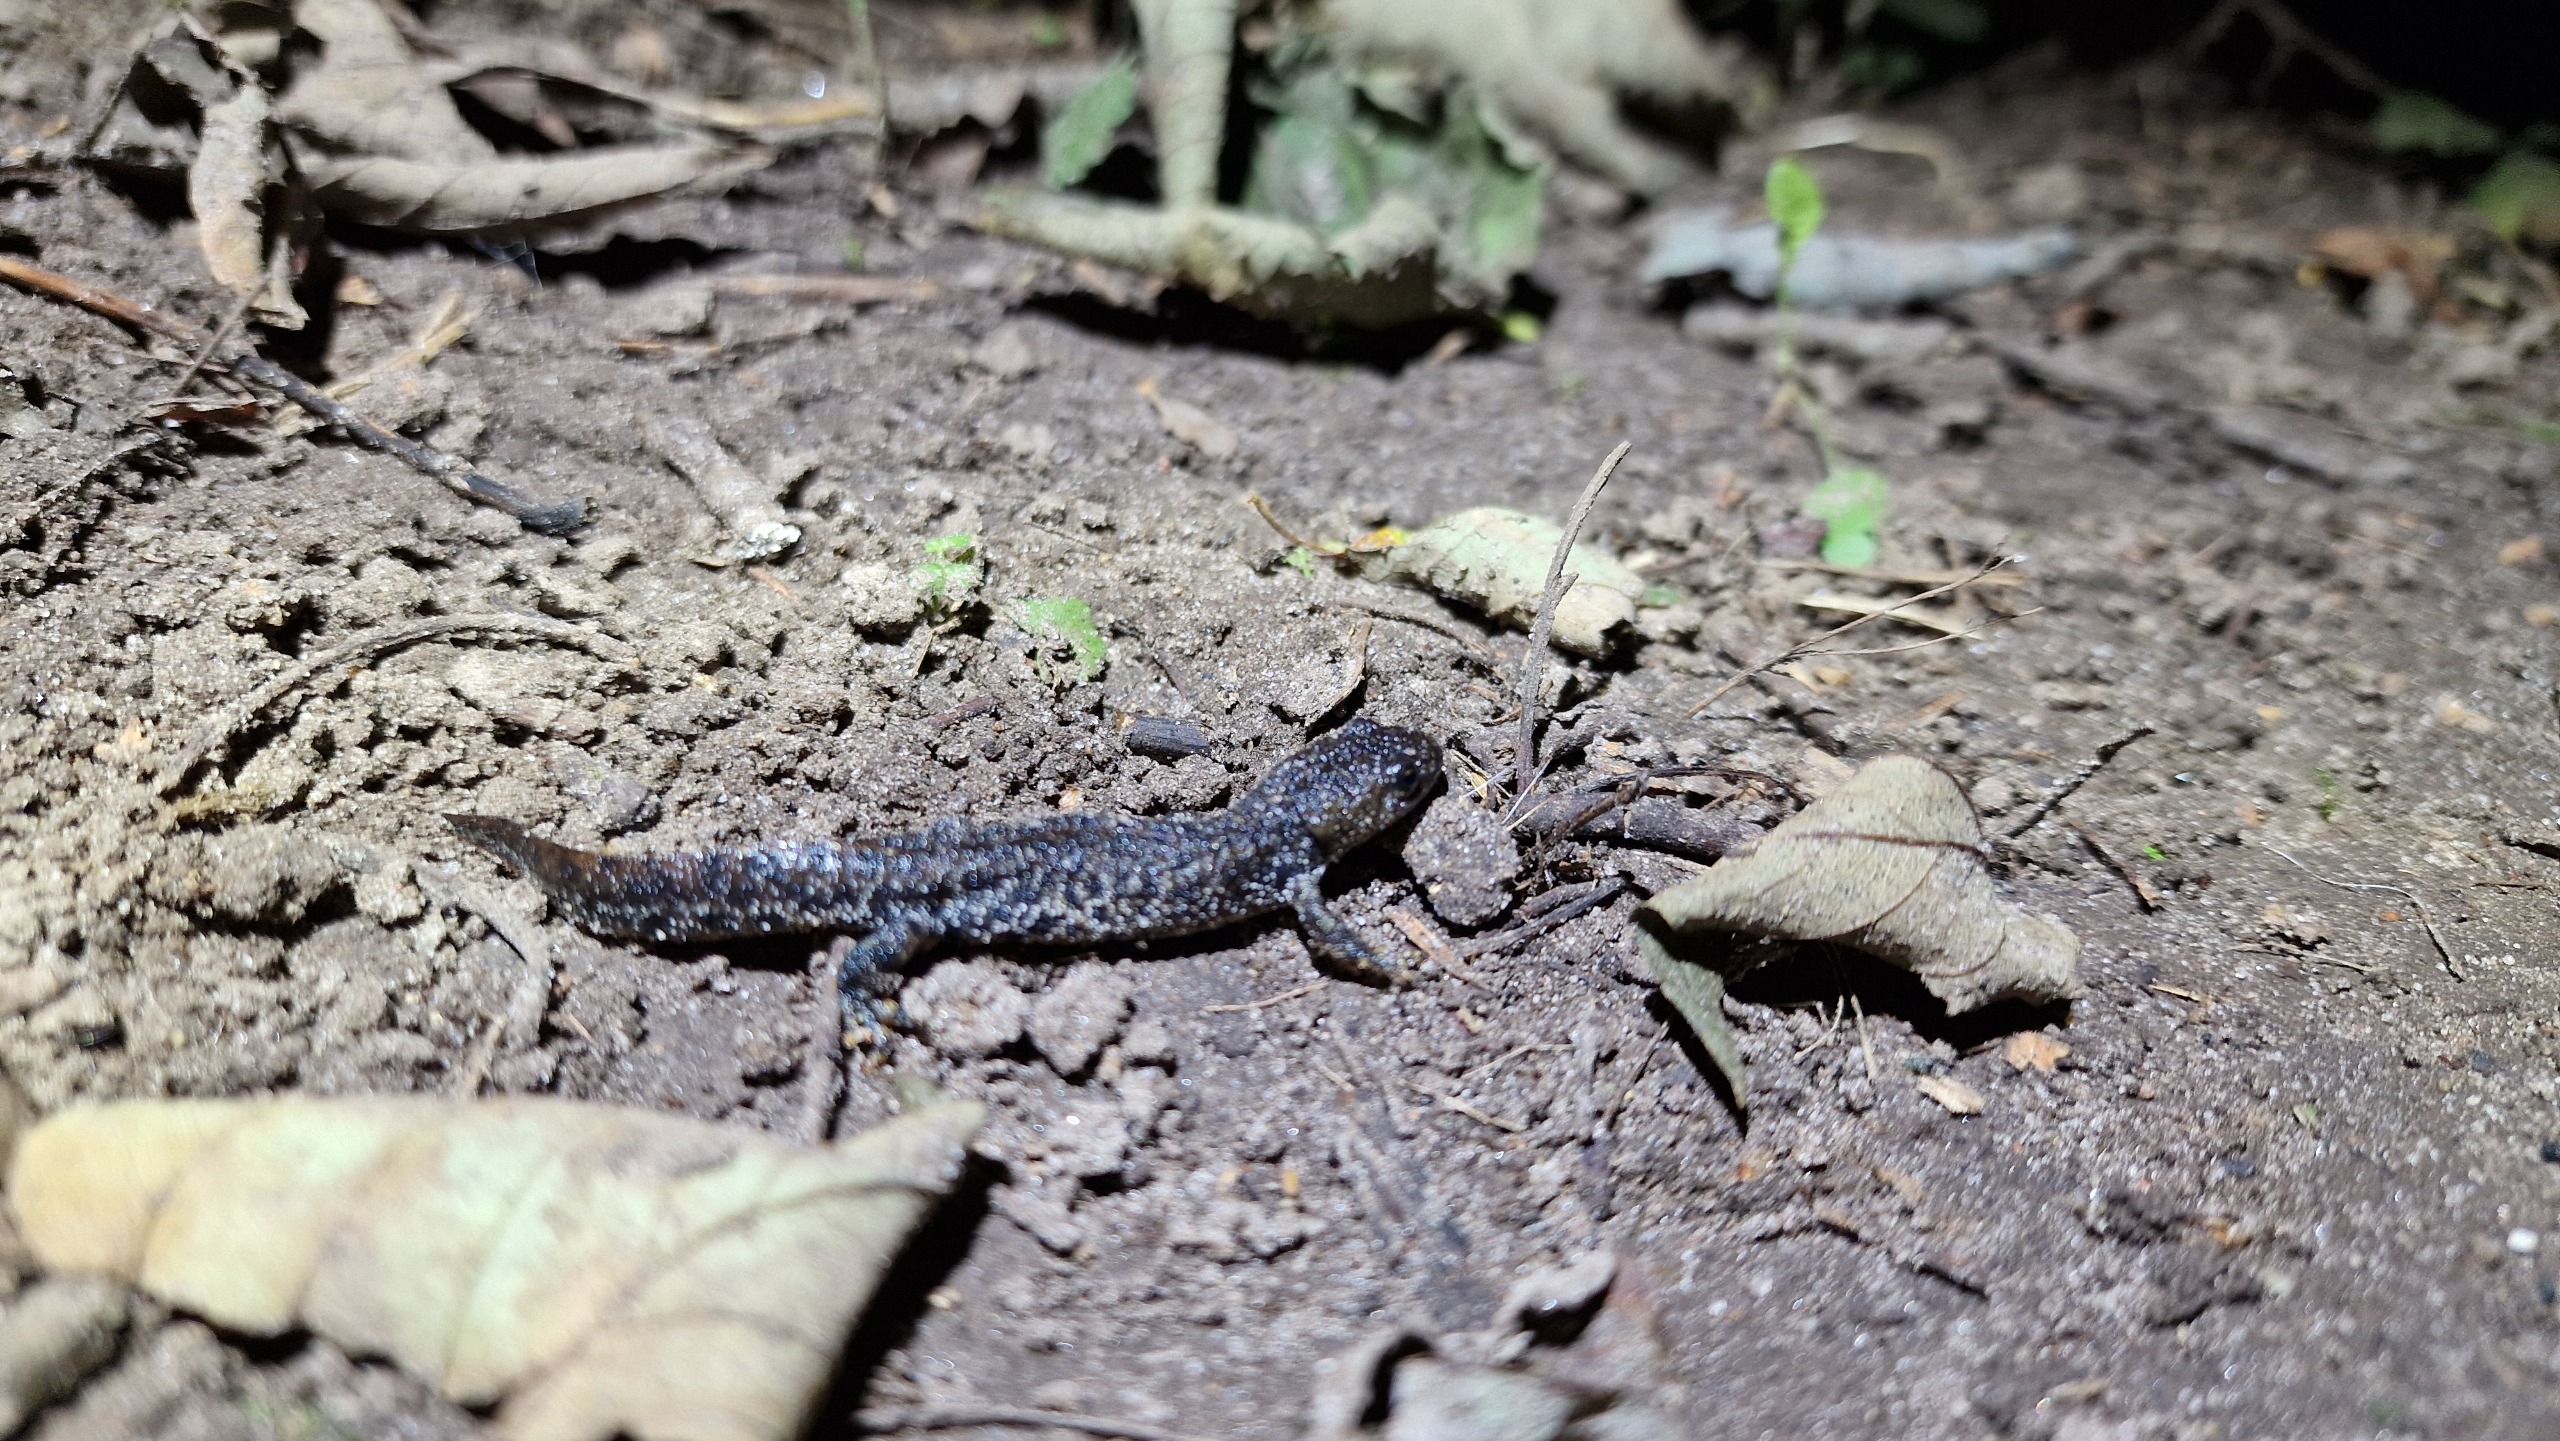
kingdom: Animalia
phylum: Chordata
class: Amphibia
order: Caudata
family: Salamandridae
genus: Triturus
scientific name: Triturus cristatus
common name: Stor vandsalamander
